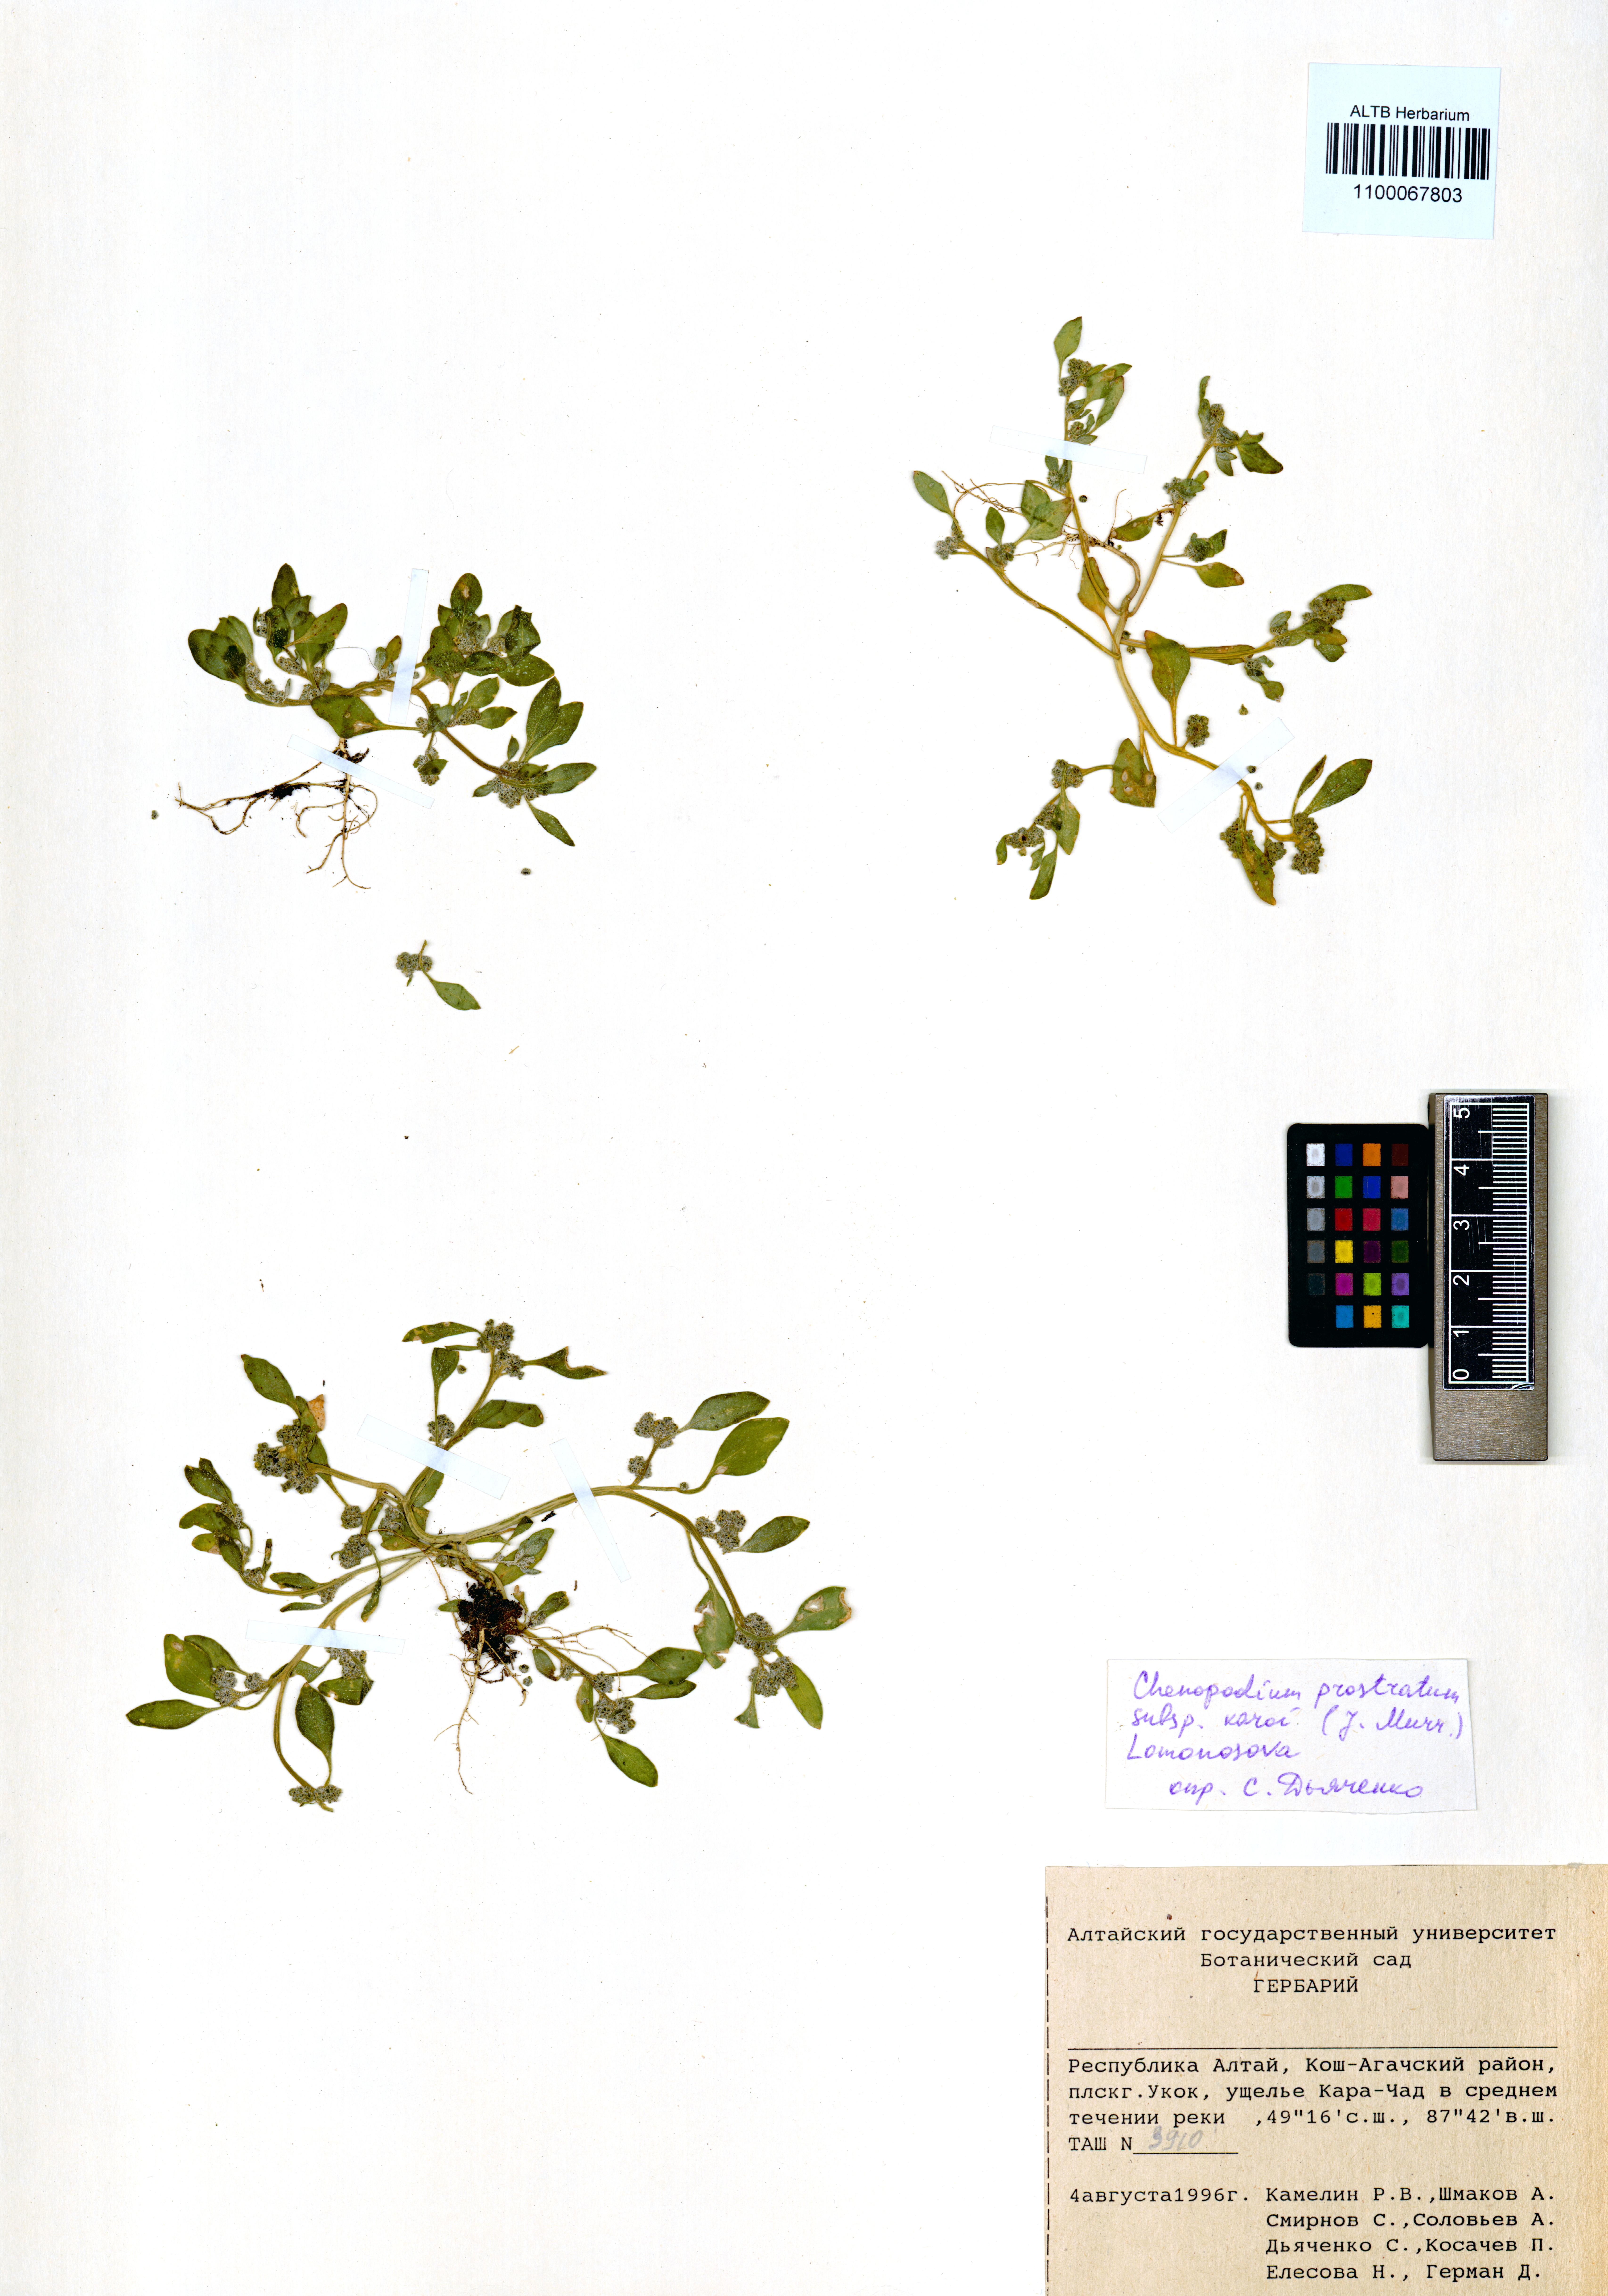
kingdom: Plantae
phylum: Tracheophyta
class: Magnoliopsida
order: Caryophyllales
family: Amaranthaceae
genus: Chenopodium
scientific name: Chenopodium karoi
